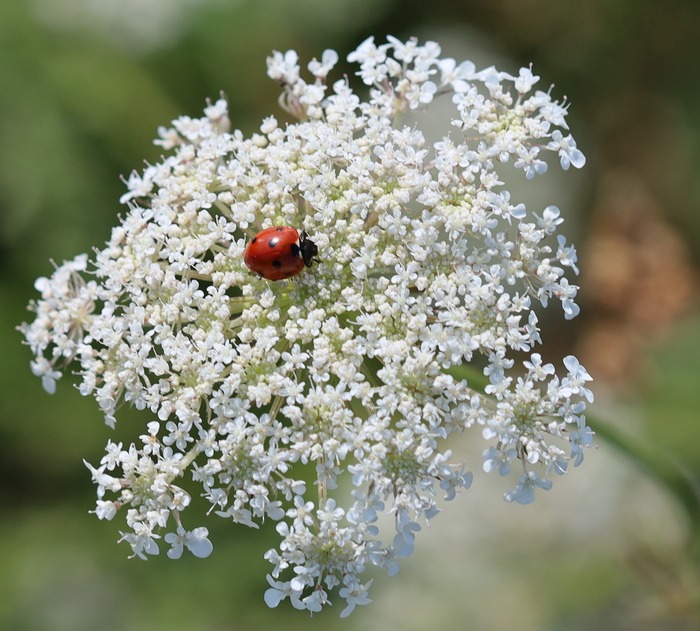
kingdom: Animalia
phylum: Arthropoda
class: Insecta
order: Coleoptera
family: Coccinellidae
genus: Coccinella
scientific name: Coccinella septempunctata
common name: Syvplettet mariehøne
